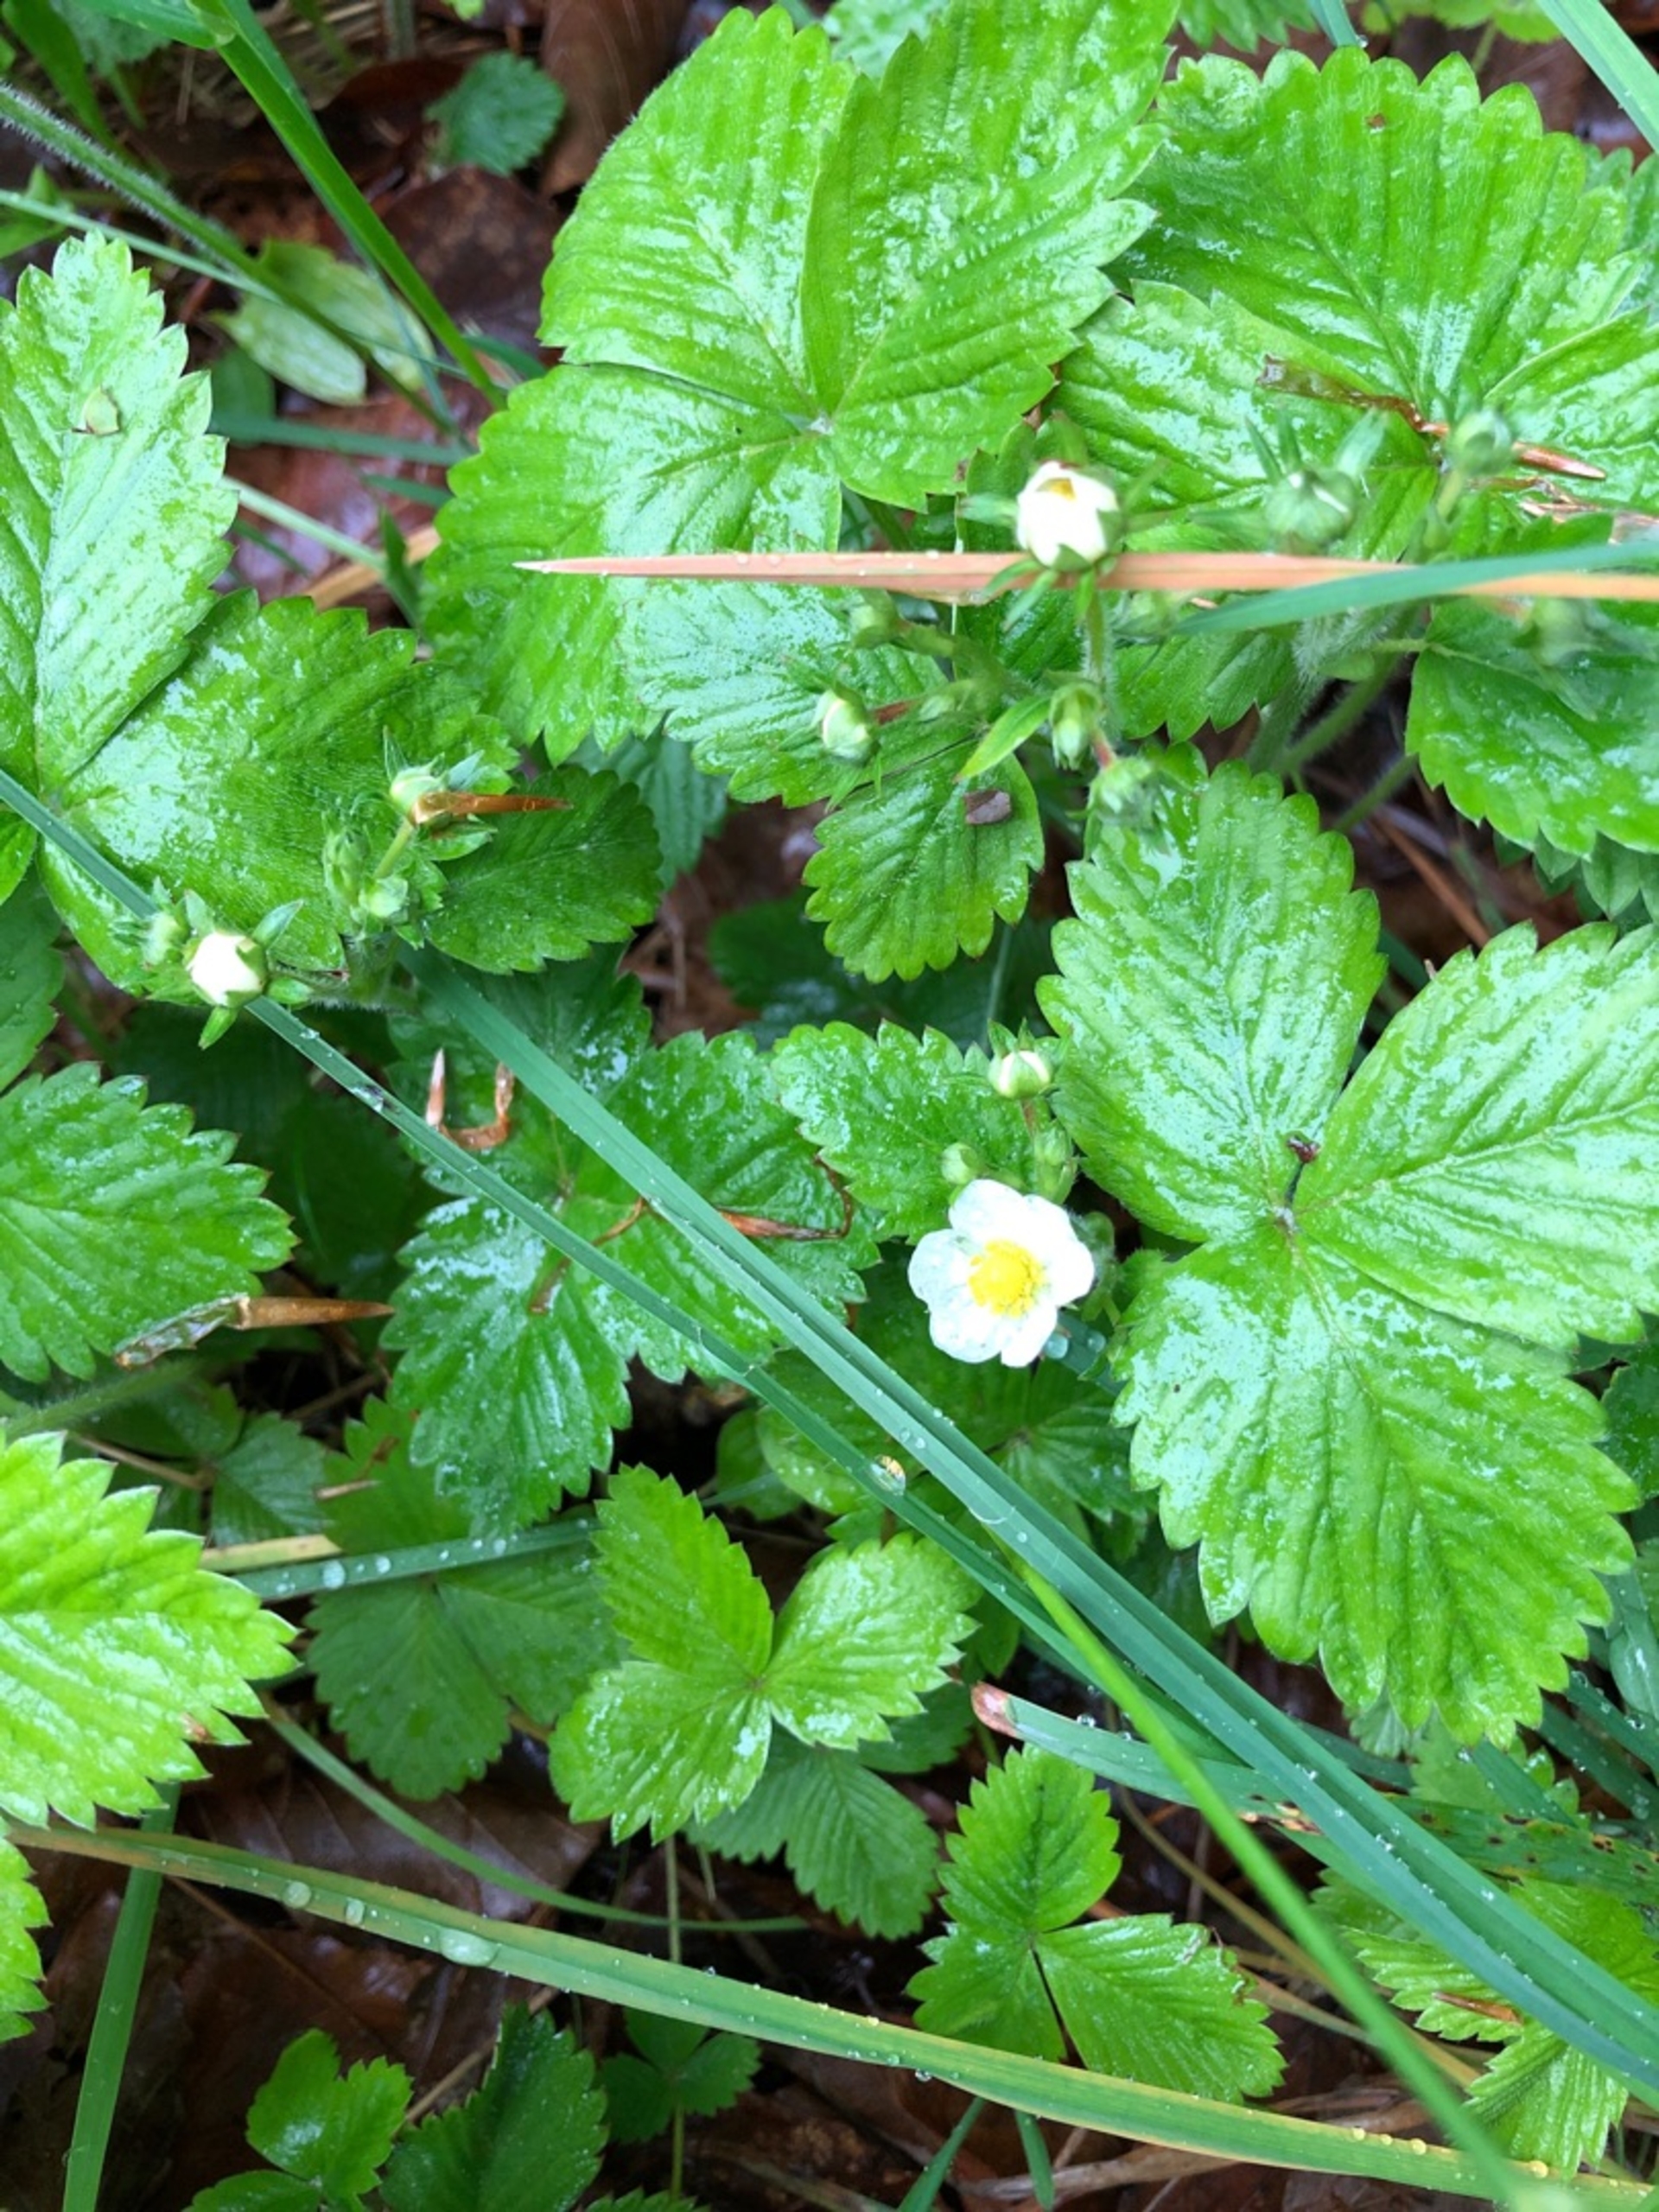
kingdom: Plantae
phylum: Tracheophyta
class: Magnoliopsida
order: Rosales
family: Rosaceae
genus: Fragaria
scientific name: Fragaria vesca
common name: Skov-jordbær
